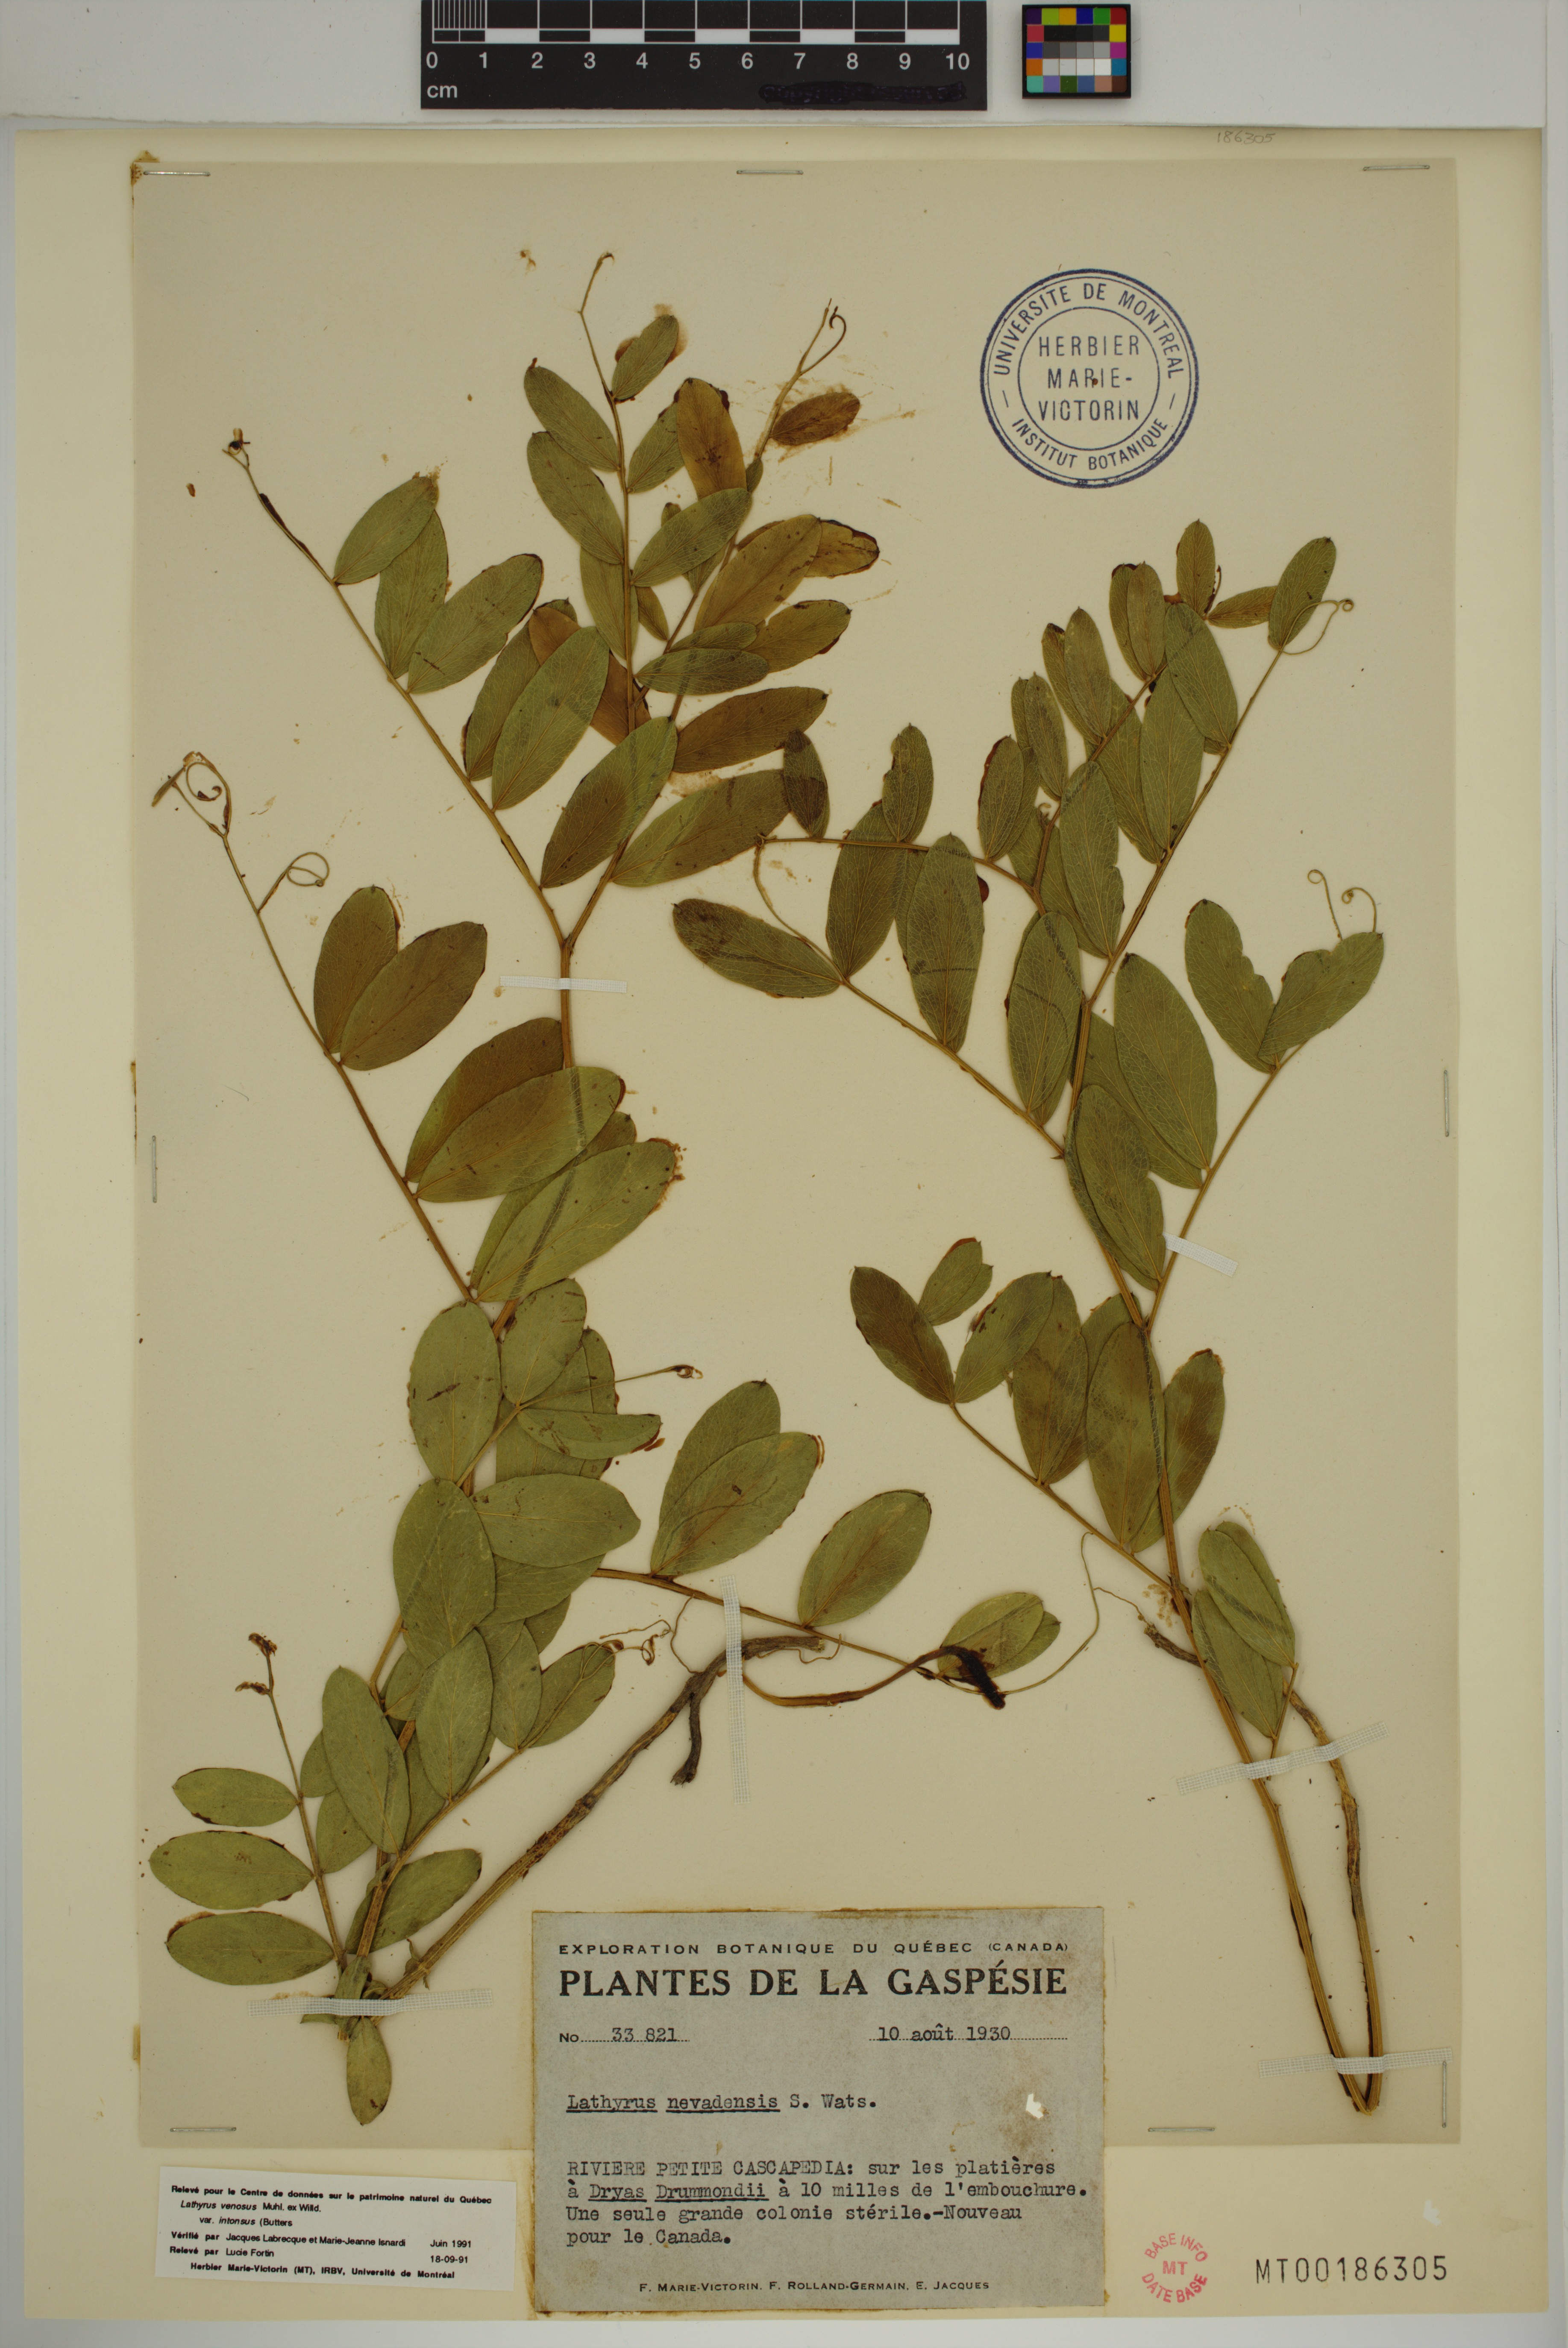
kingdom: Plantae
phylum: Tracheophyta
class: Magnoliopsida
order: Fabales
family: Fabaceae
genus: Lathyrus
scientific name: Lathyrus venosus
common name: Forest-pea
